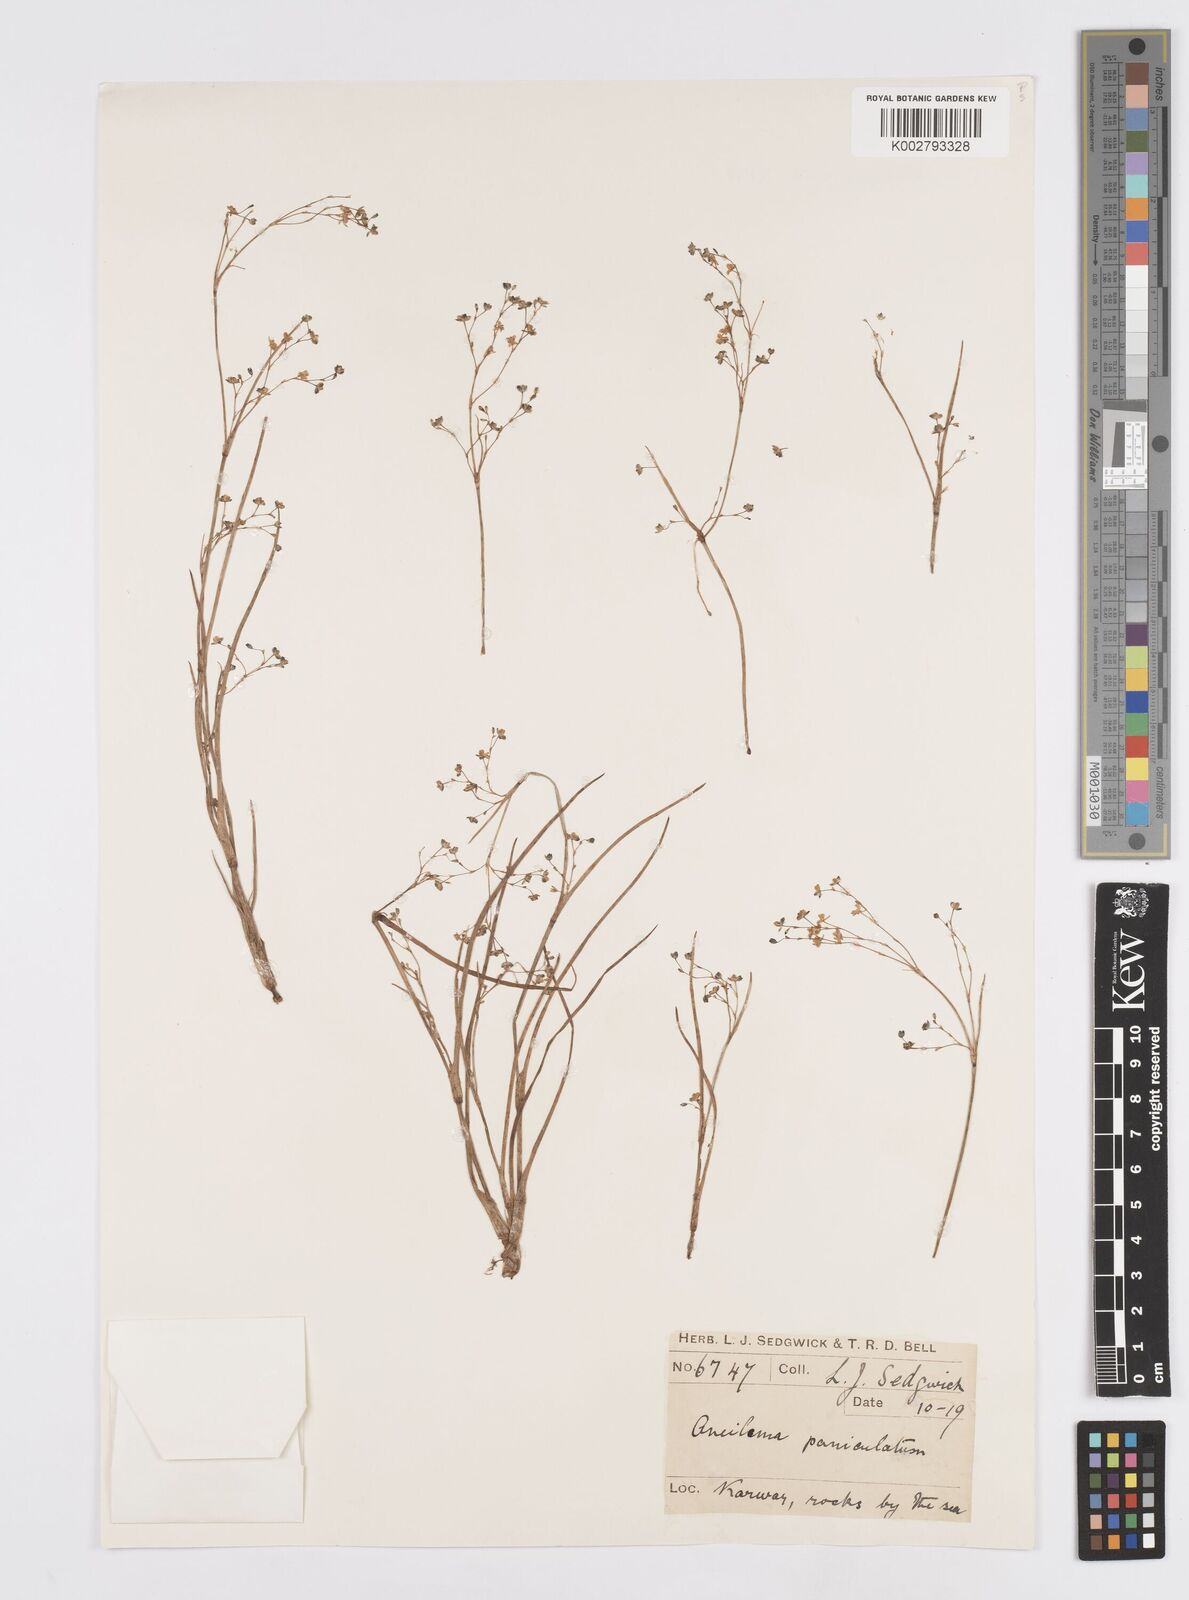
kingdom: Plantae
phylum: Tracheophyta
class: Liliopsida
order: Commelinales
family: Commelinaceae
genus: Murdannia
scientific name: Murdannia semiteres
